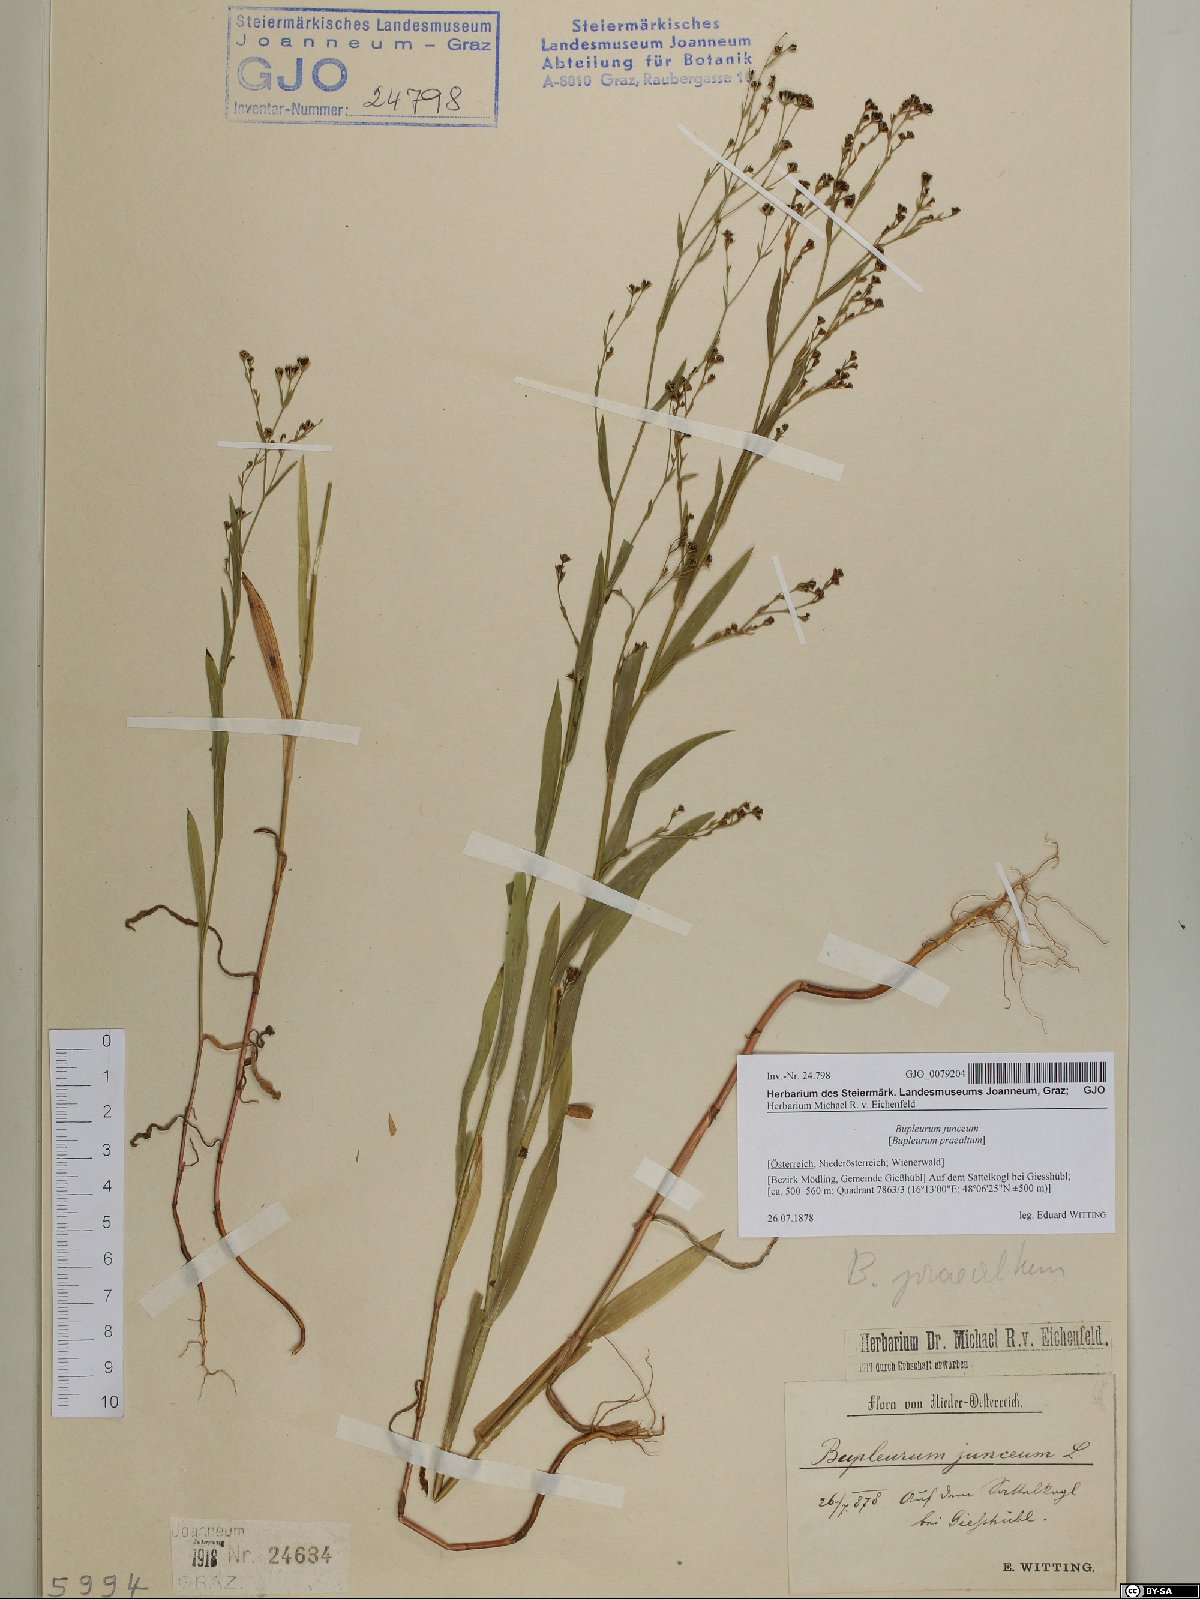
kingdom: Plantae
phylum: Tracheophyta
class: Magnoliopsida
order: Apiales
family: Apiaceae
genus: Bupleurum
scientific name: Bupleurum praealtum
